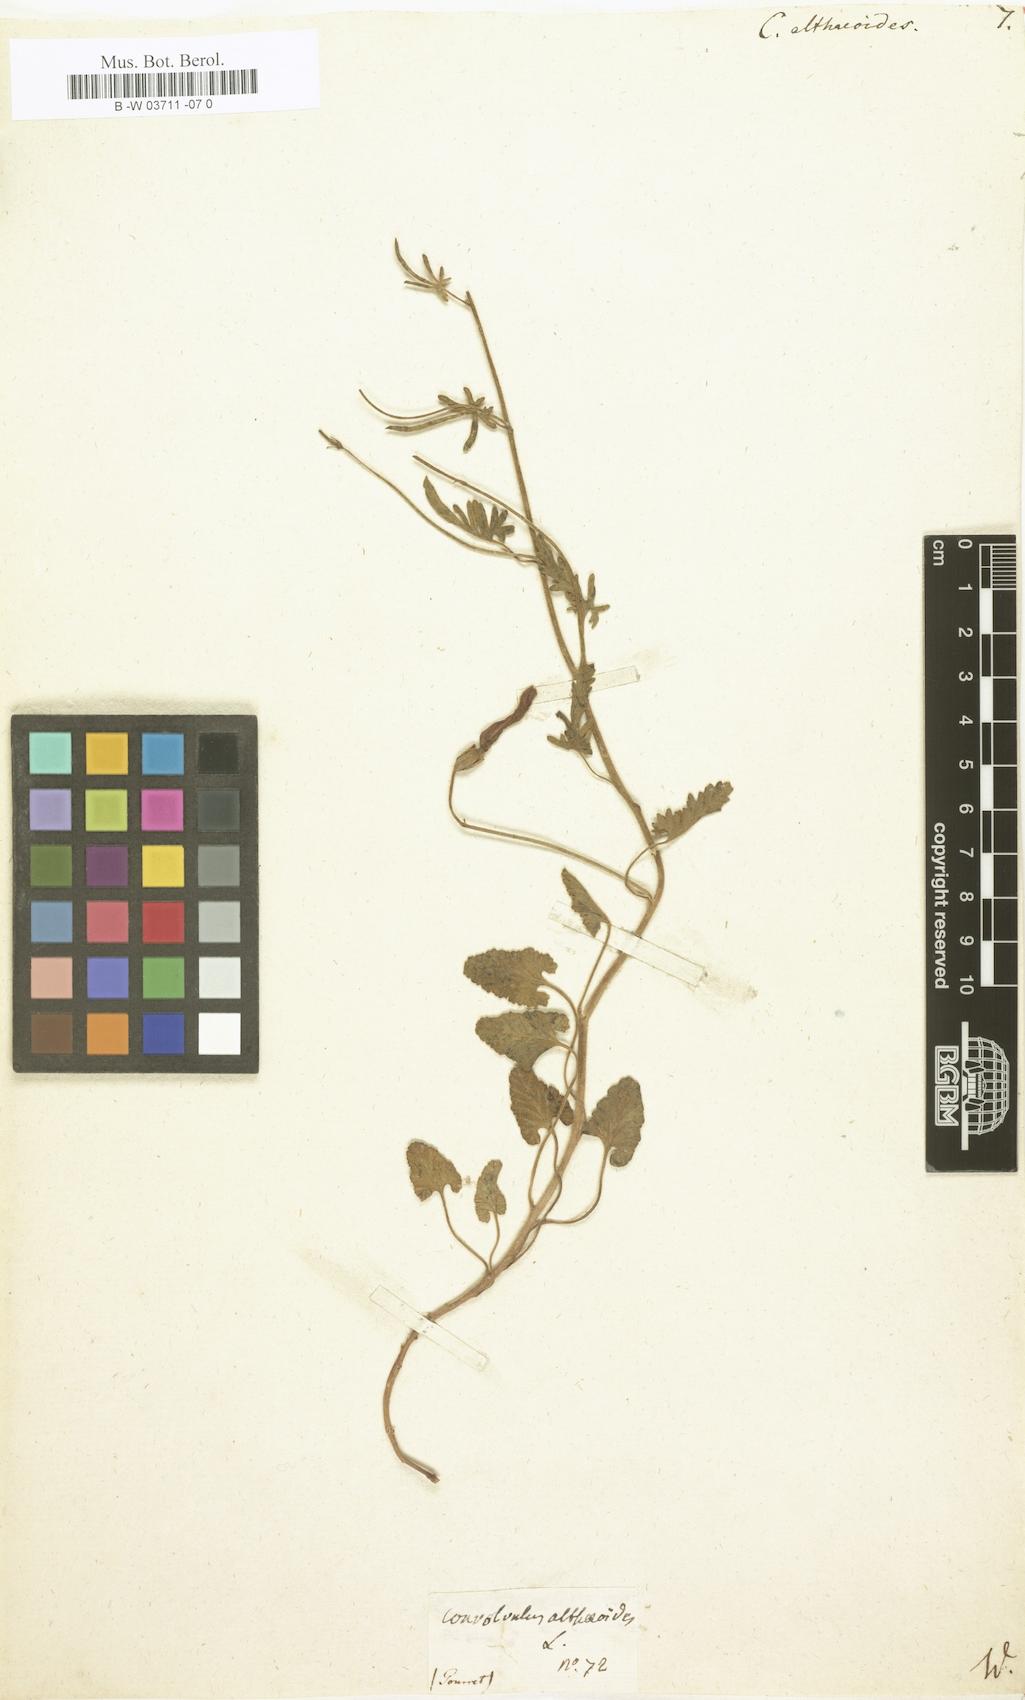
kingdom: Plantae
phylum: Tracheophyta
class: Magnoliopsida
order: Solanales
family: Convolvulaceae
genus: Convolvulus
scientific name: Convolvulus althaeoides
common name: Mallow bindweed
